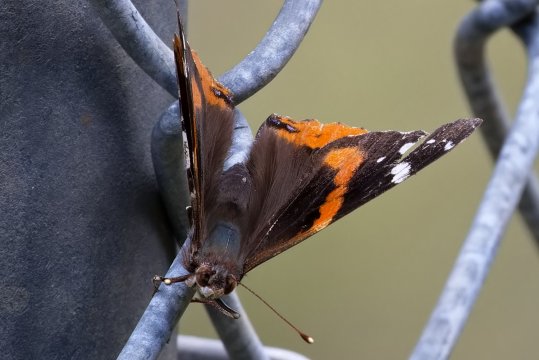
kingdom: Animalia
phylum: Arthropoda
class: Insecta
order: Lepidoptera
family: Nymphalidae
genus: Vanessa
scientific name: Vanessa atalanta
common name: Red Admiral
